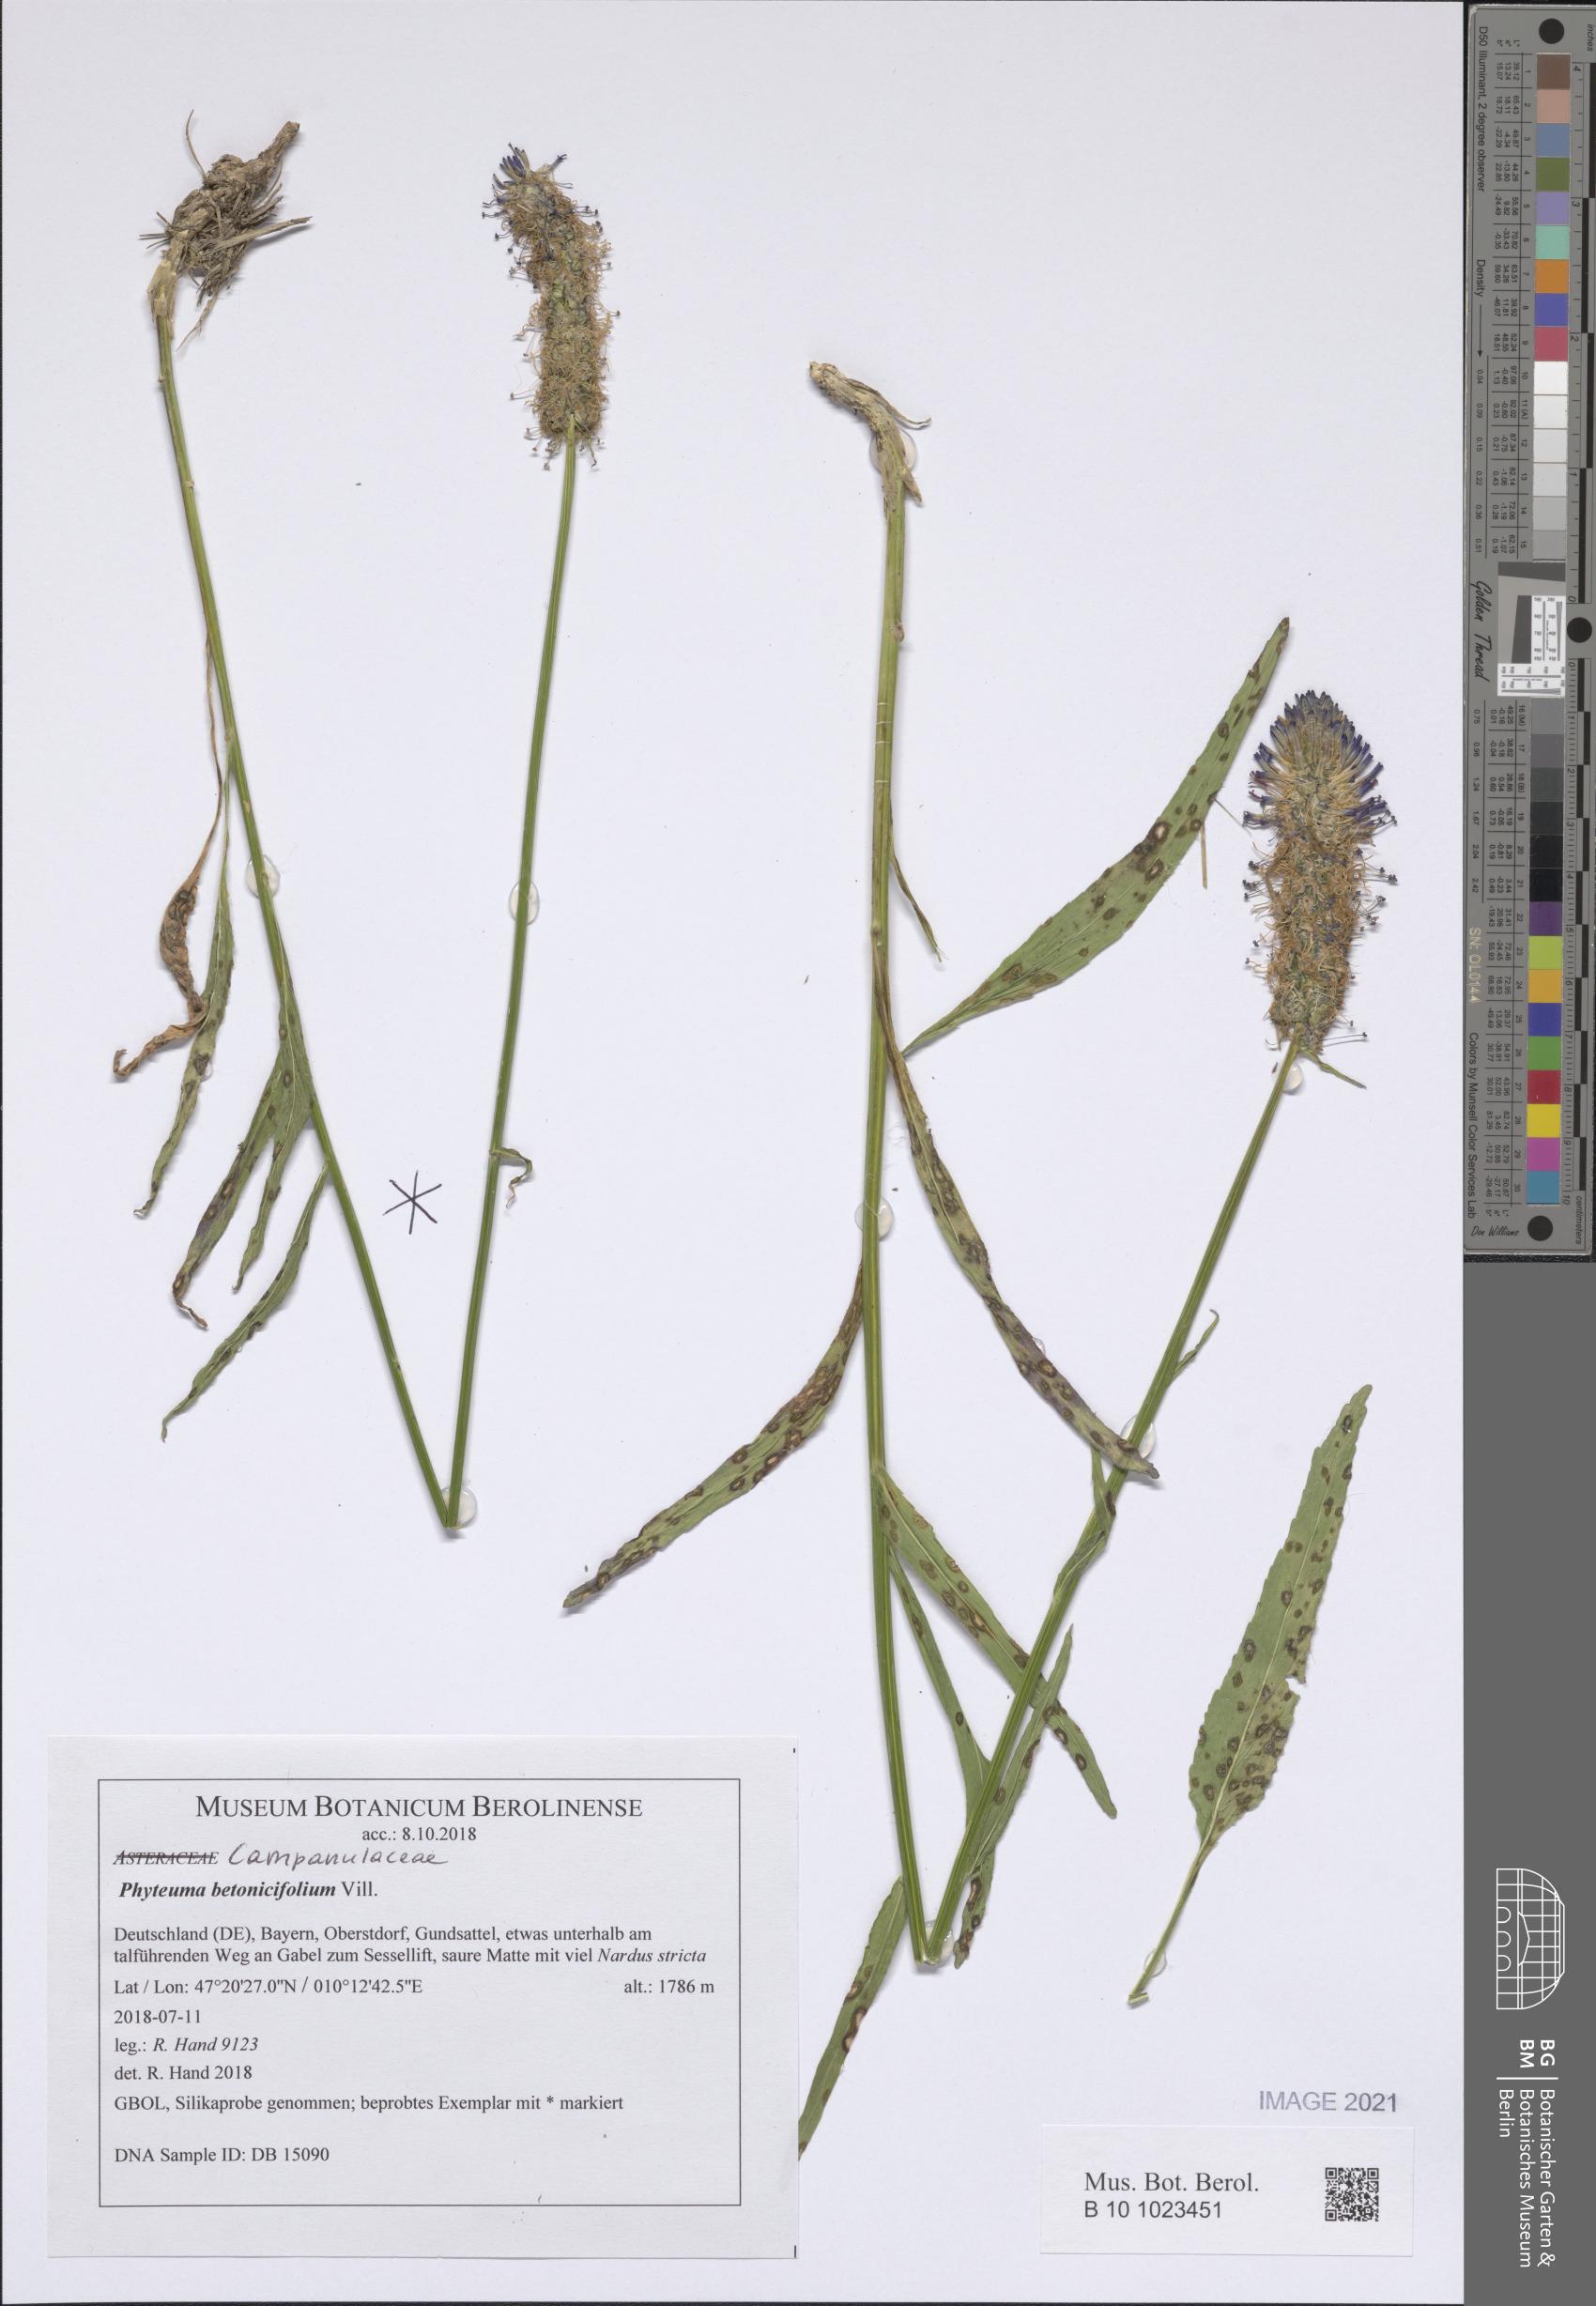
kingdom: Plantae
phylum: Tracheophyta
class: Magnoliopsida
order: Asterales
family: Campanulaceae
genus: Phyteuma
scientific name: Phyteuma betonicifolium
